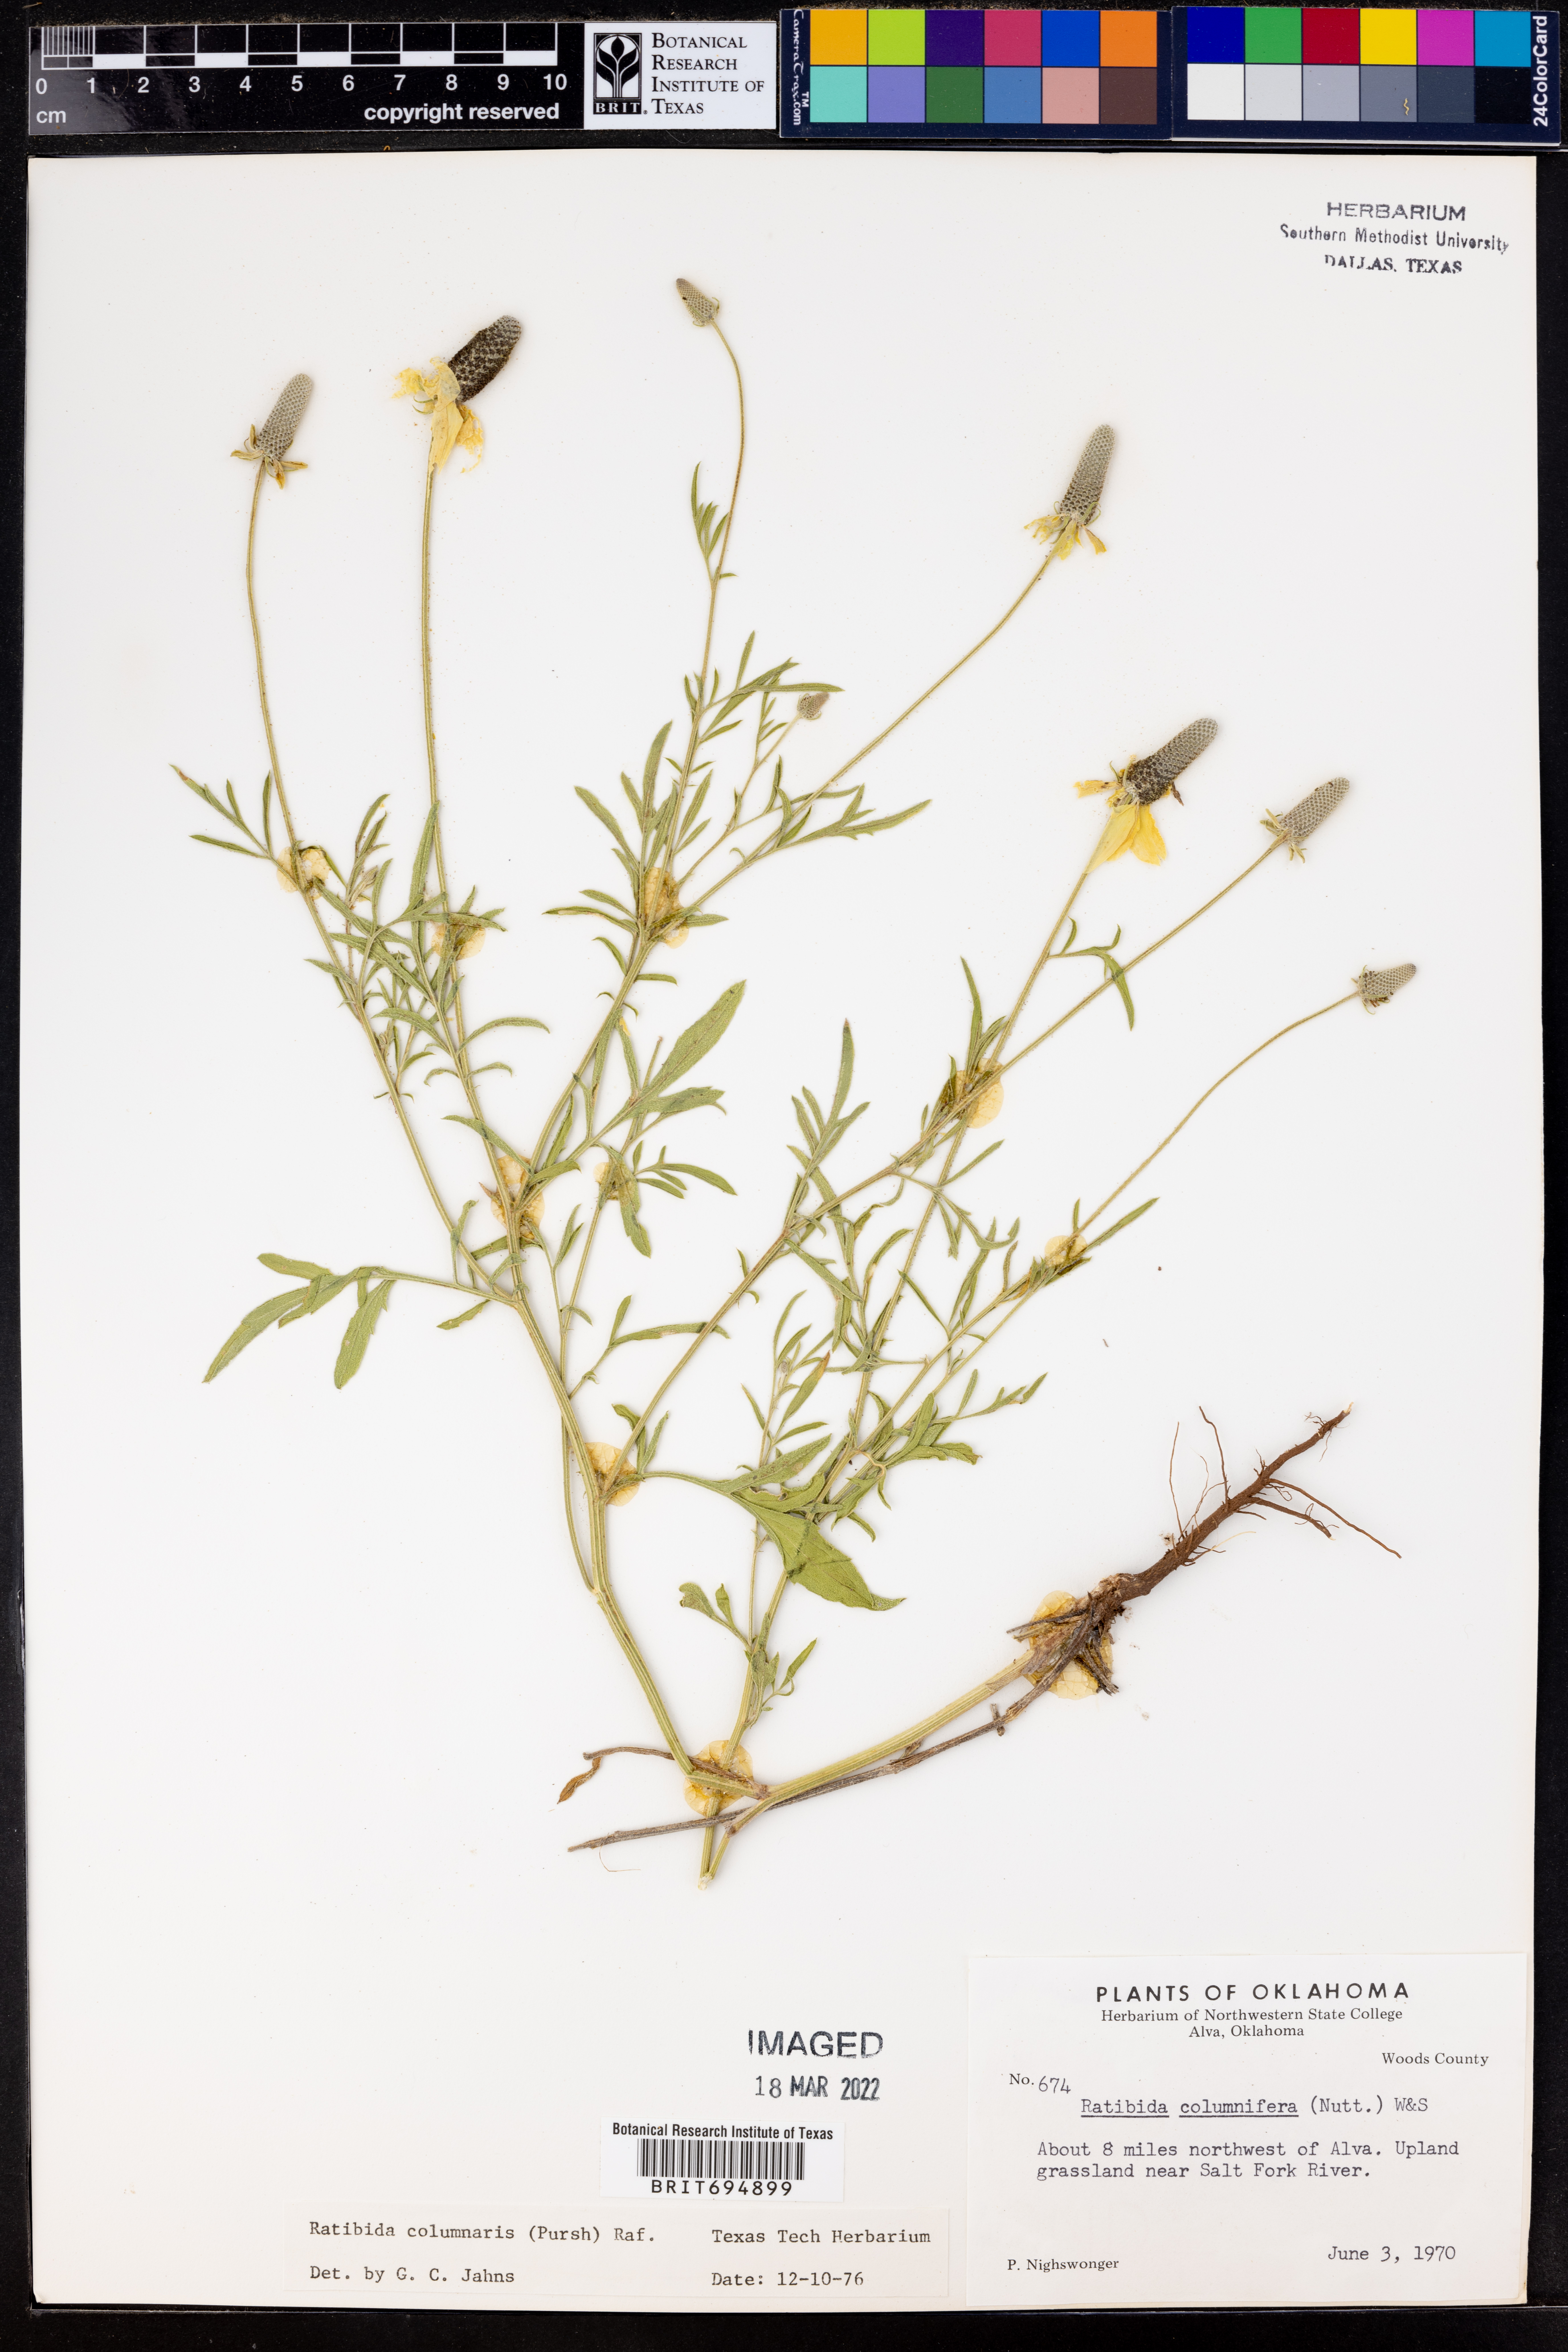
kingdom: Plantae
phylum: Tracheophyta
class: Magnoliopsida
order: Asterales
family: Asteraceae
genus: Ratibida
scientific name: Ratibida columnifera
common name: Prairie coneflower
